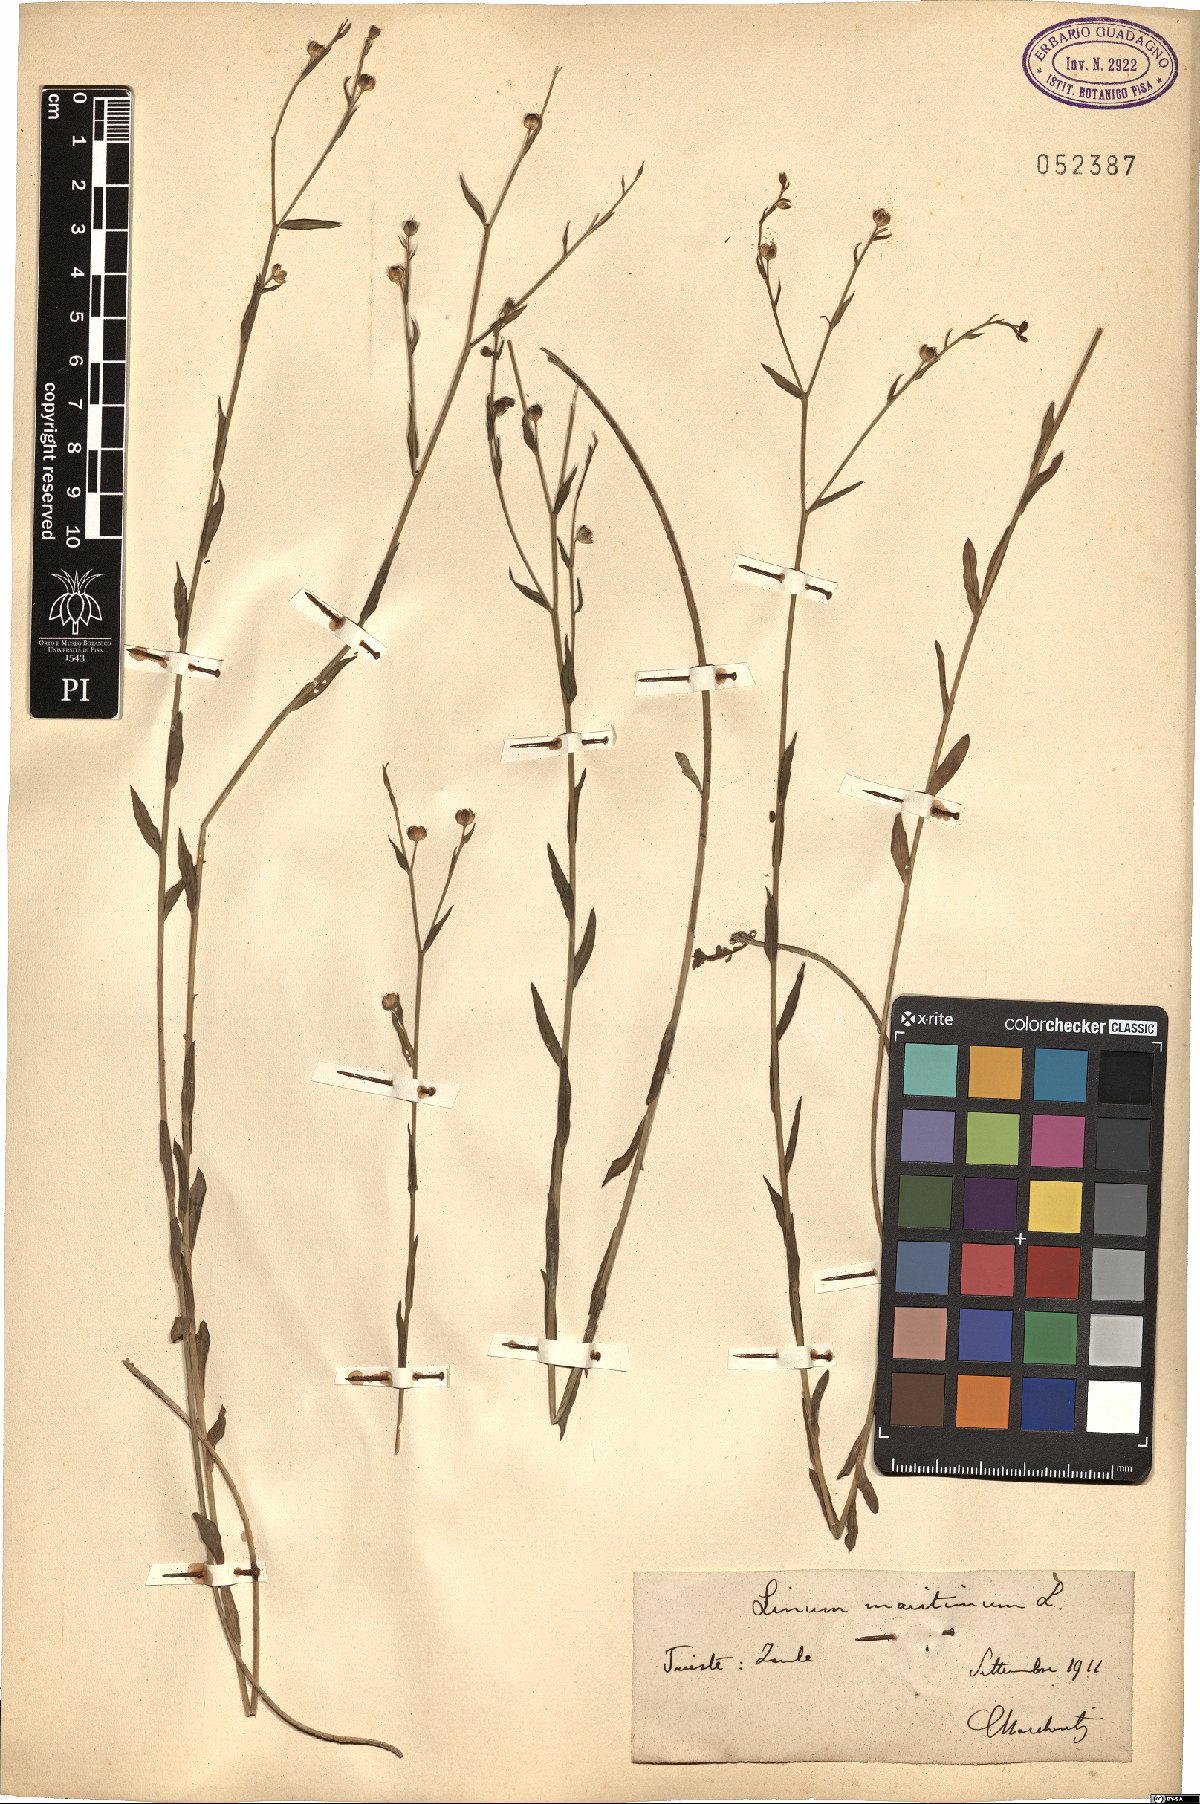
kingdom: Plantae
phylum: Tracheophyta
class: Magnoliopsida
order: Malpighiales
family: Linaceae
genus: Linum
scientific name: Linum maritimum
